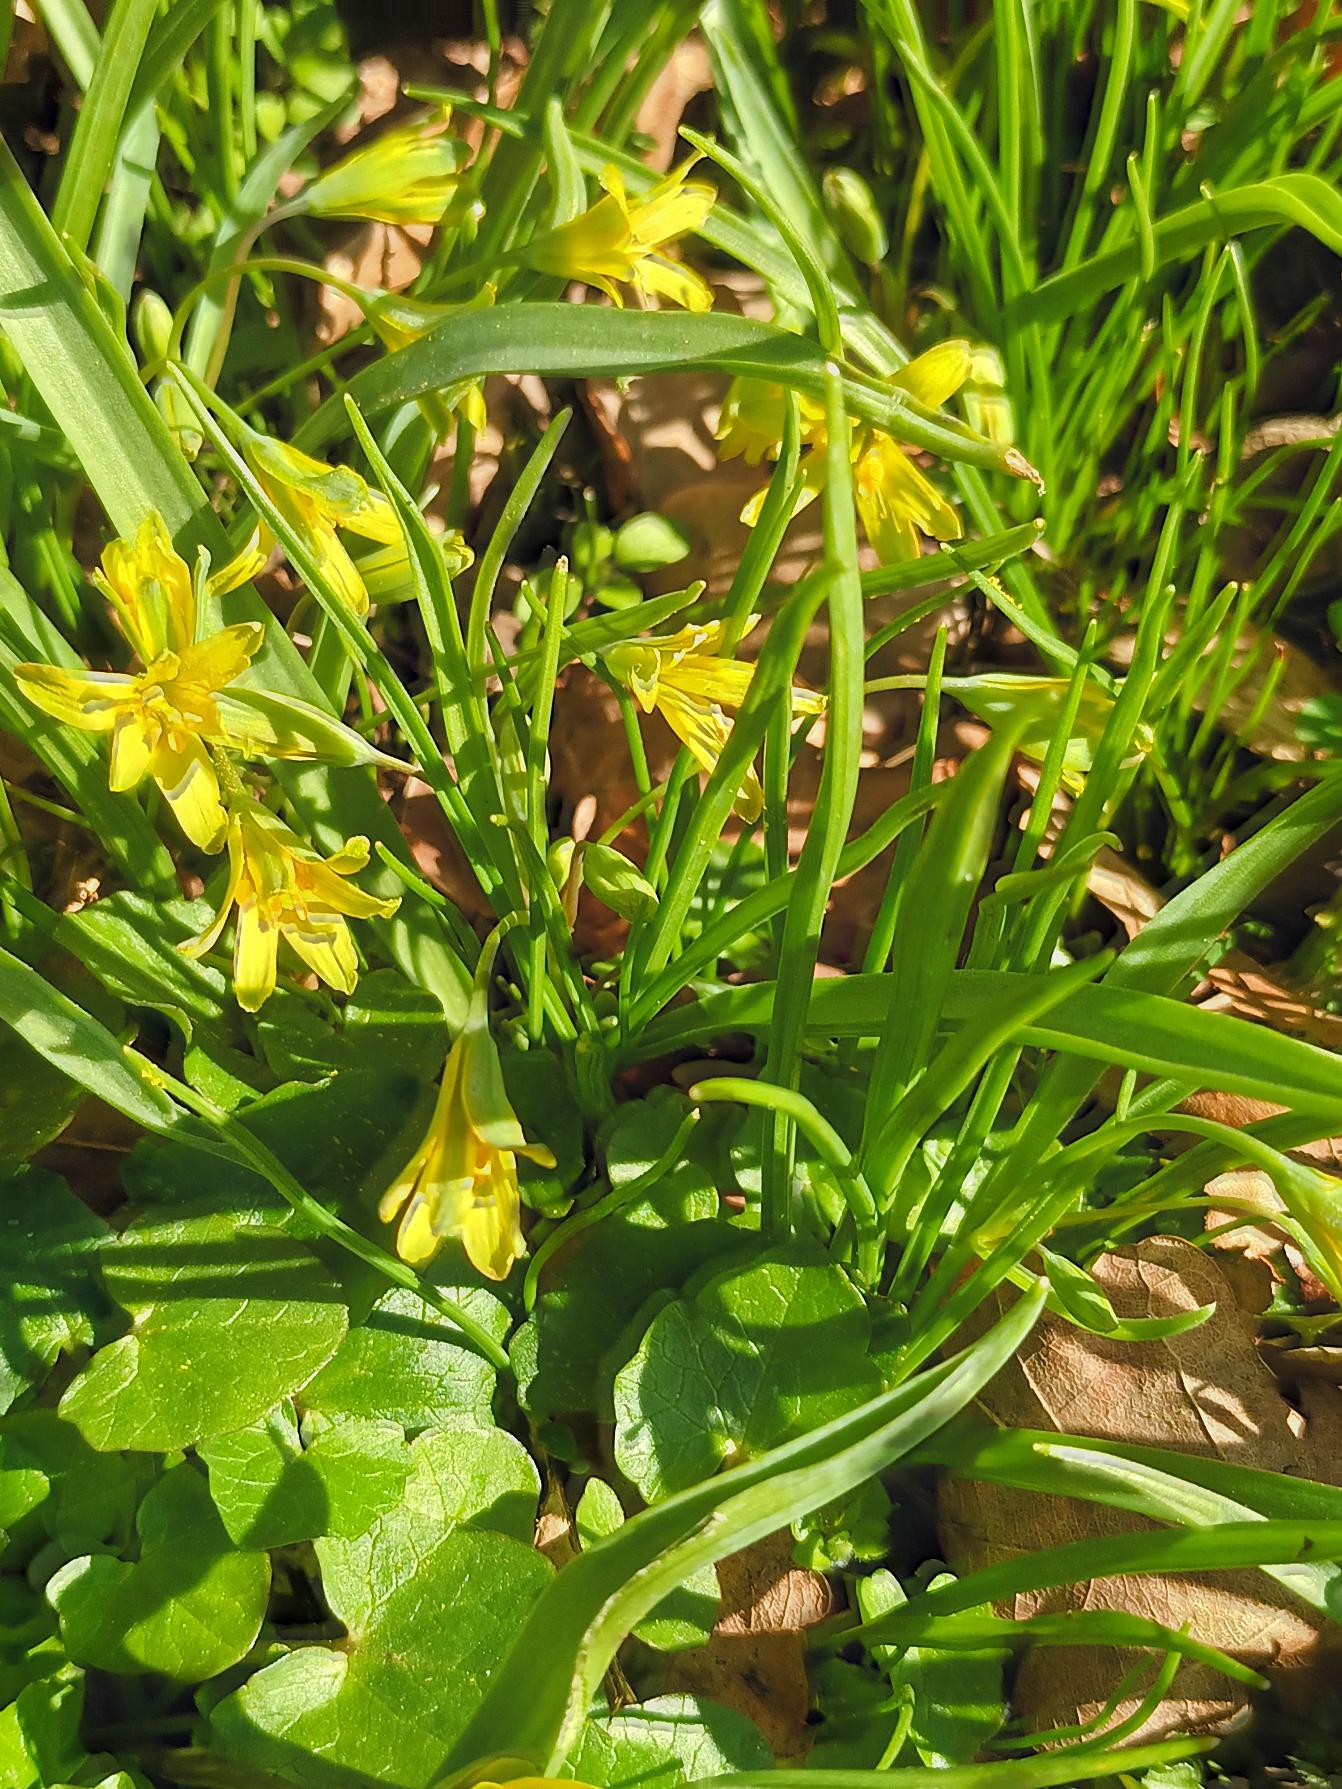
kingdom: Plantae
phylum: Tracheophyta
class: Liliopsida
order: Liliales
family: Liliaceae
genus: Gagea
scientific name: Gagea lutea
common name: Almindelig guldstjerne
